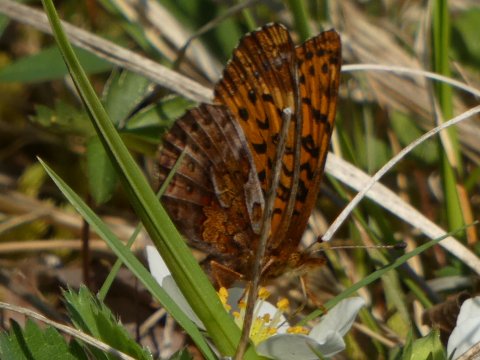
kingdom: Animalia
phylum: Arthropoda
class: Insecta
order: Lepidoptera
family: Nymphalidae
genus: Clossiana
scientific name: Clossiana toddi
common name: Meadow Fritillary
